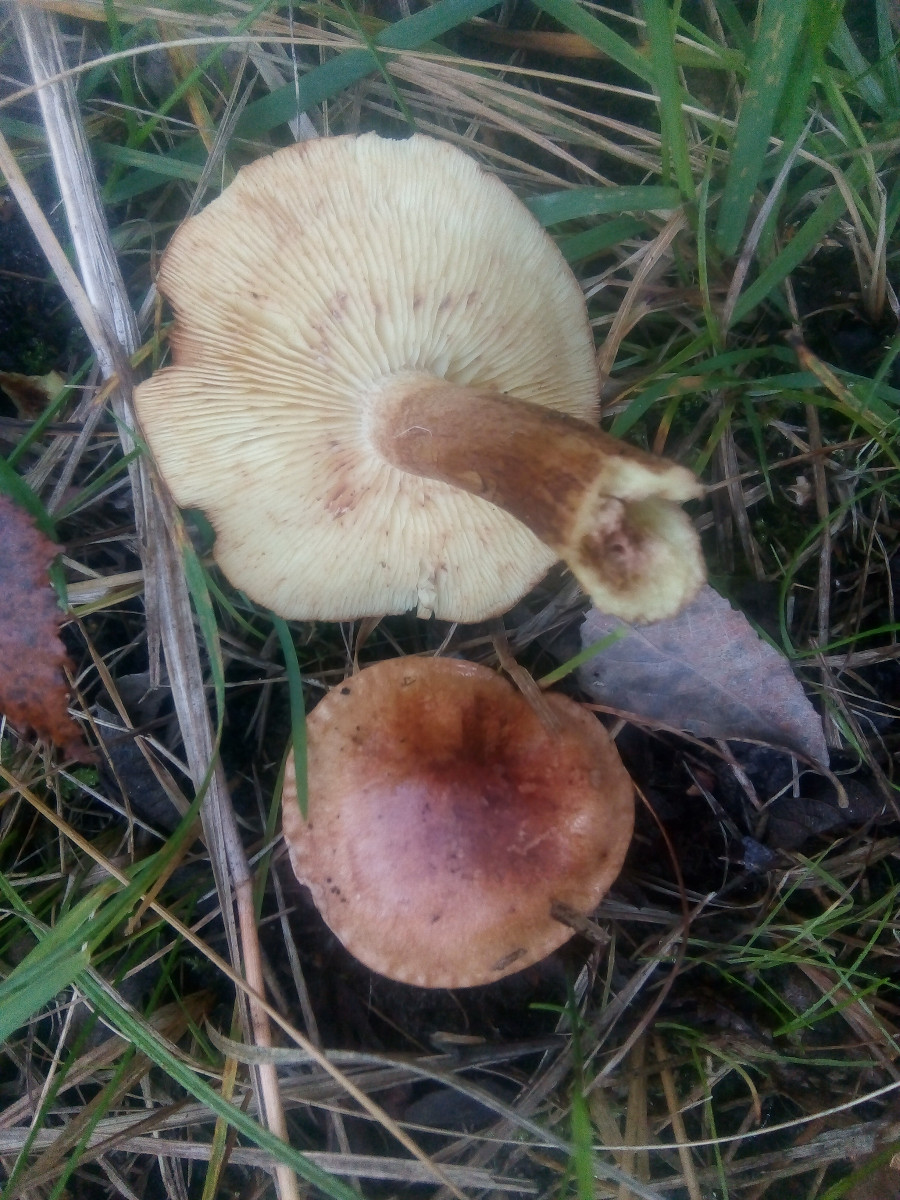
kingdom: Fungi
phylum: Basidiomycota
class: Agaricomycetes
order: Agaricales
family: Tricholomataceae
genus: Tricholoma
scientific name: Tricholoma fulvum
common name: birke-ridderhat
